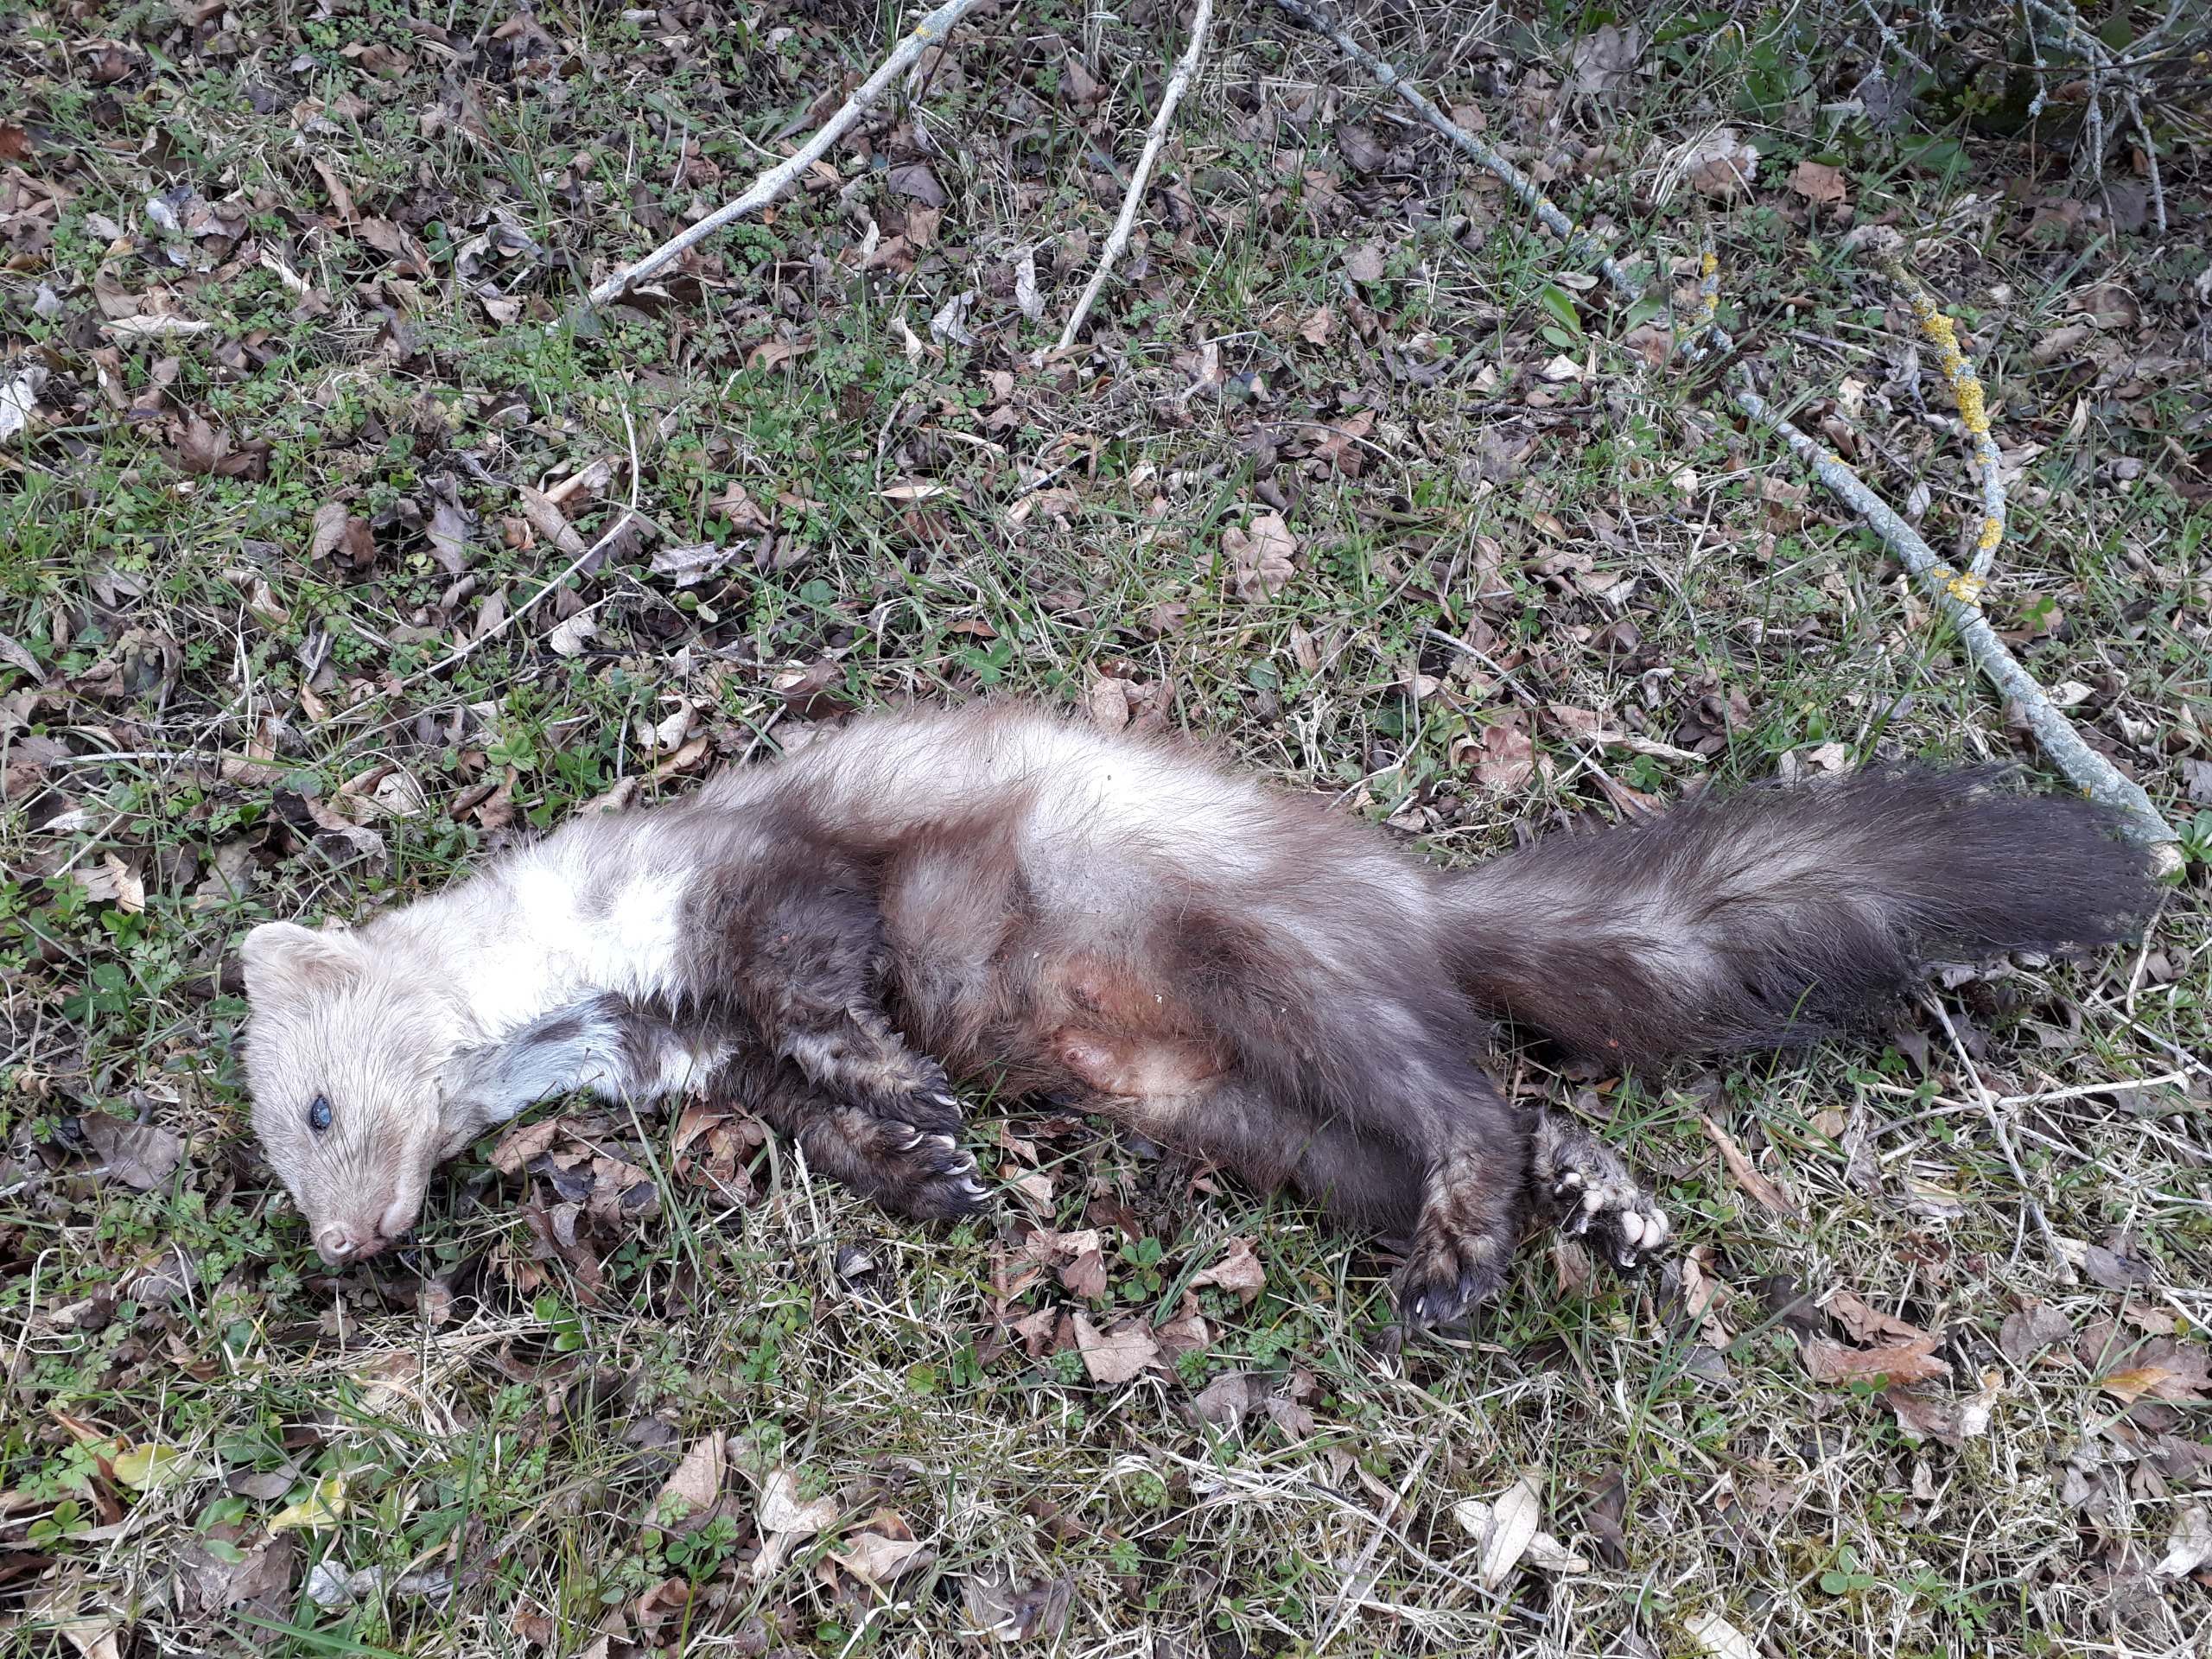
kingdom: Animalia
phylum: Chordata
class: Mammalia
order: Carnivora
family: Mustelidae
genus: Martes
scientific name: Martes foina
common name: Husmår
